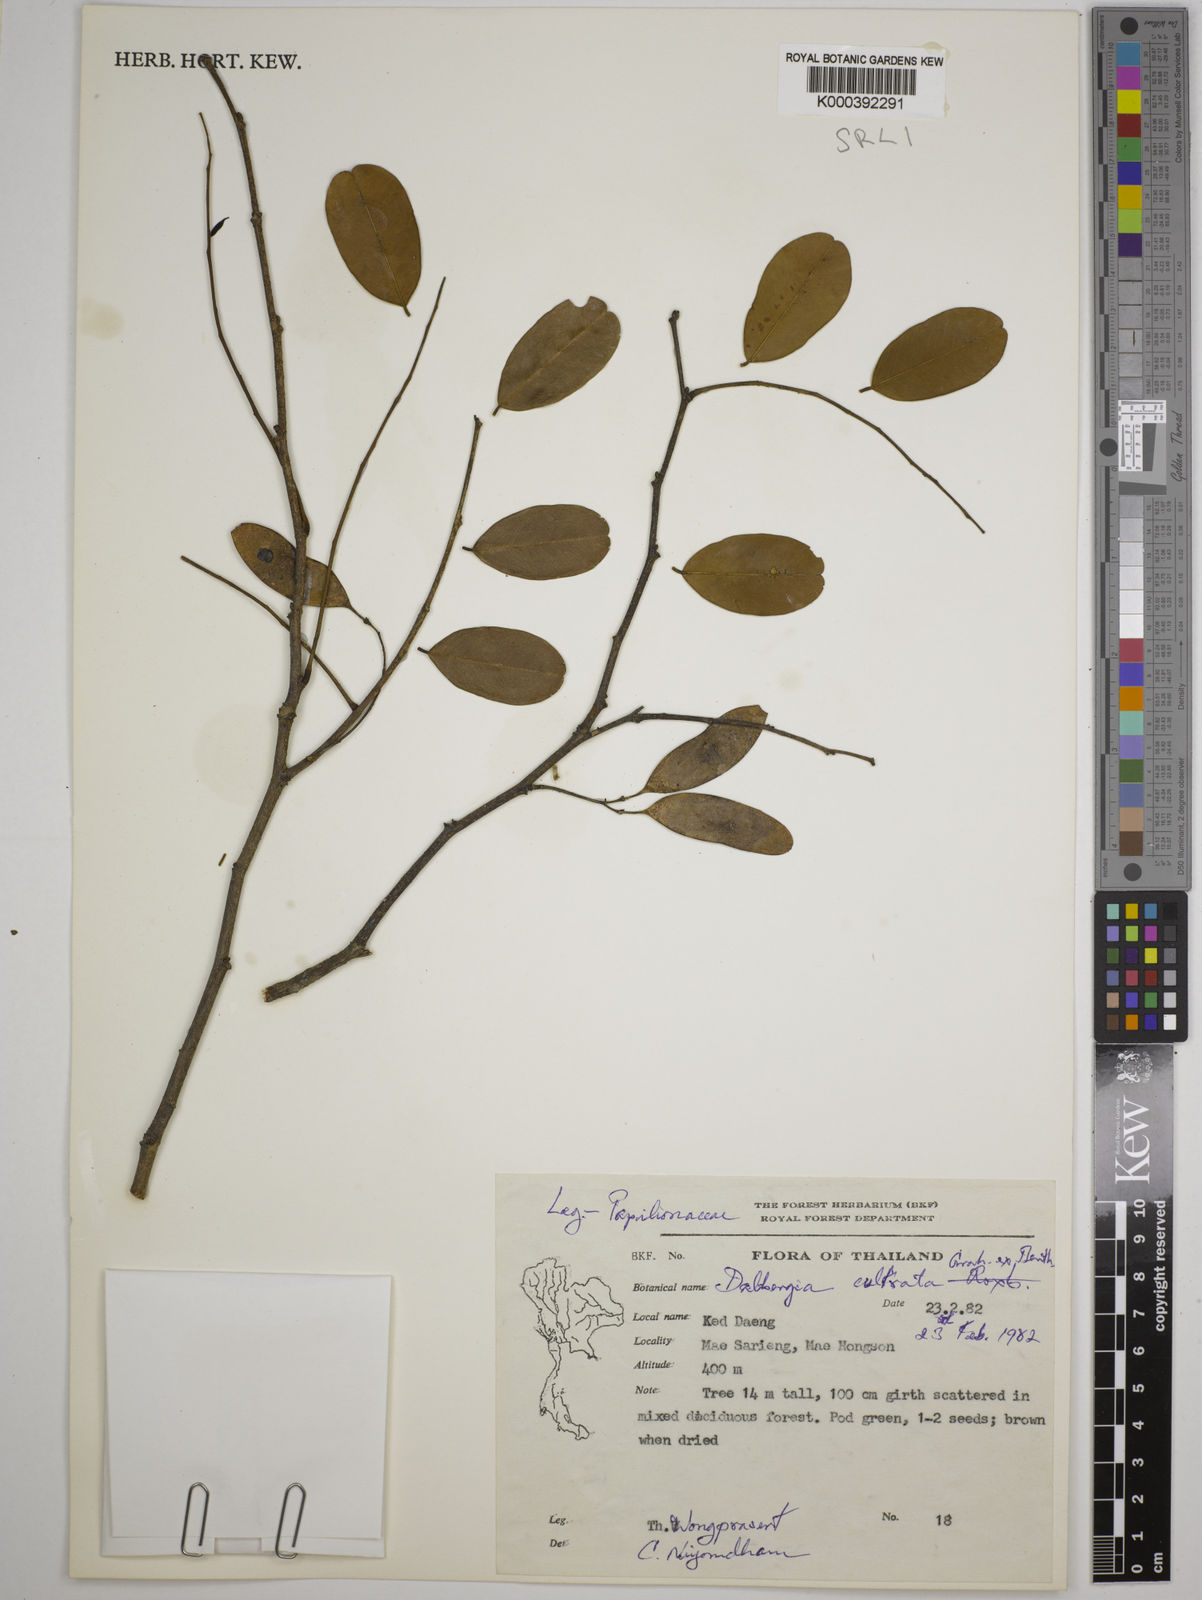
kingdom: Plantae
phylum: Tracheophyta
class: Magnoliopsida
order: Fabales
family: Fabaceae
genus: Dalbergia
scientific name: Dalbergia
